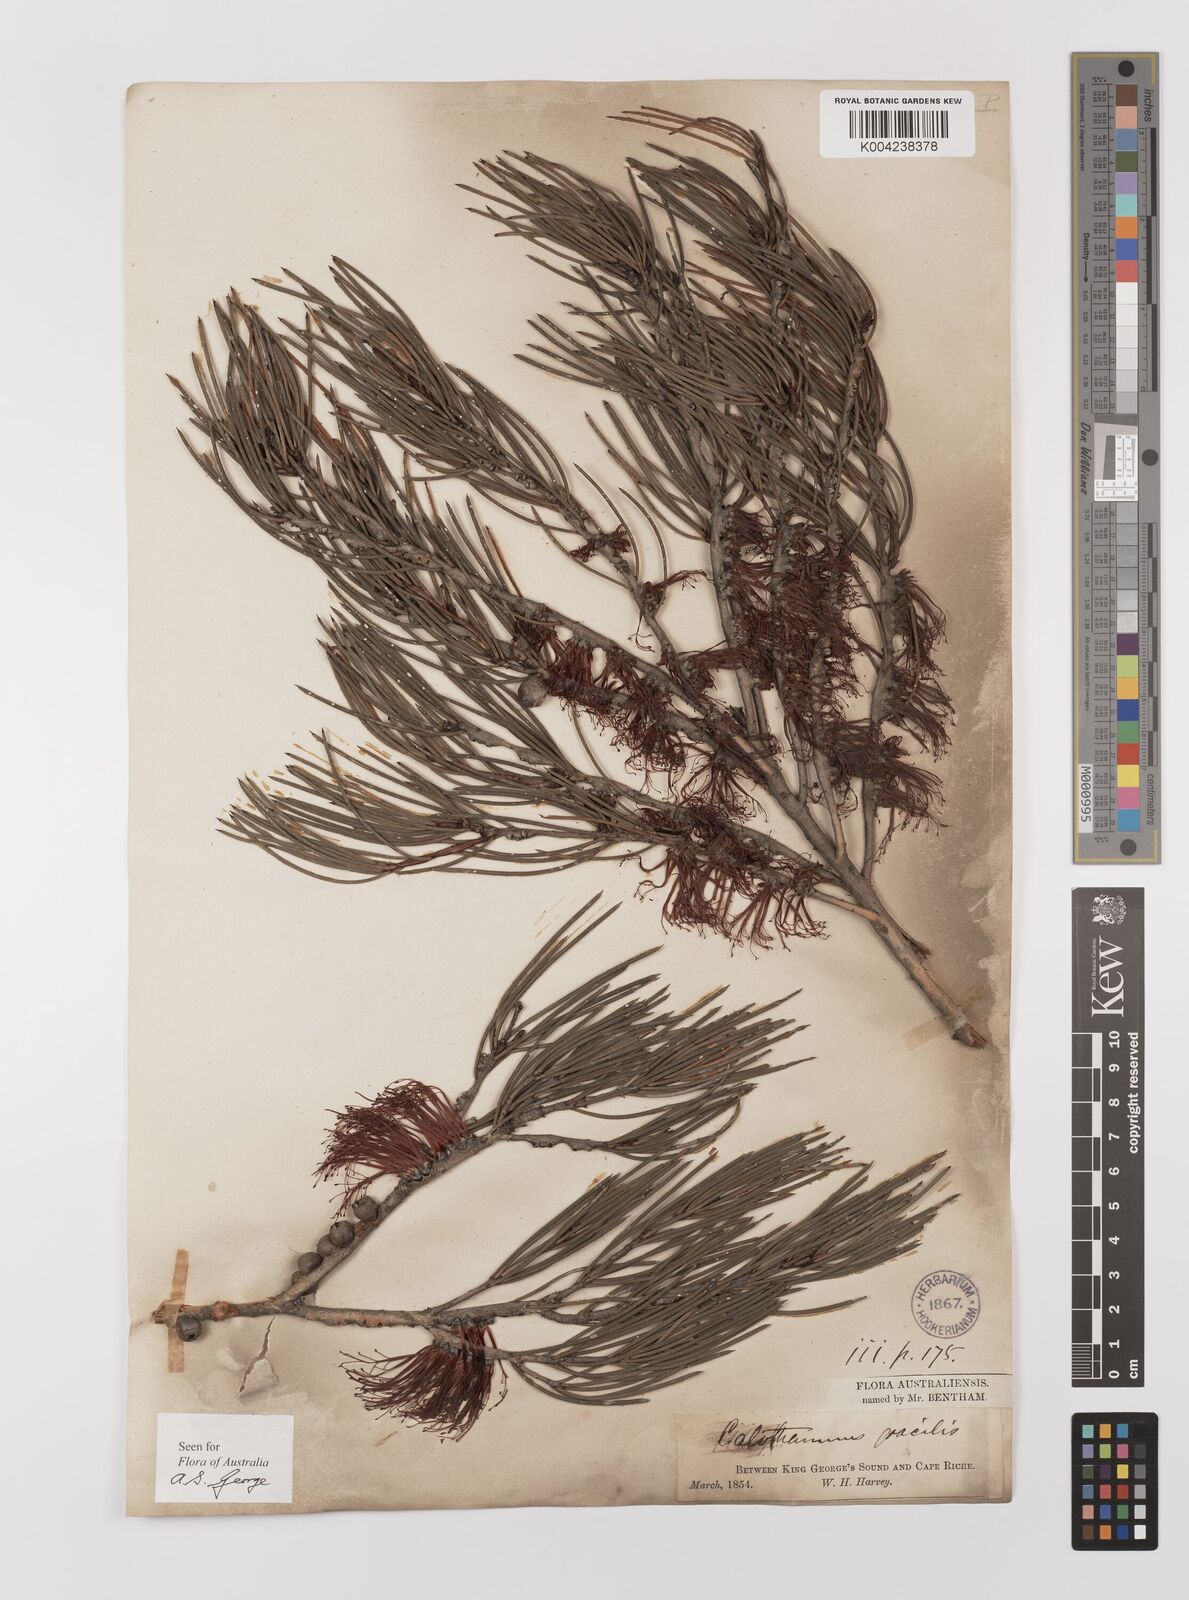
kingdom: Plantae
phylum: Tracheophyta
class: Magnoliopsida
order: Myrtales
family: Myrtaceae
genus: Melaleuca
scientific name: Melaleuca gracilis
